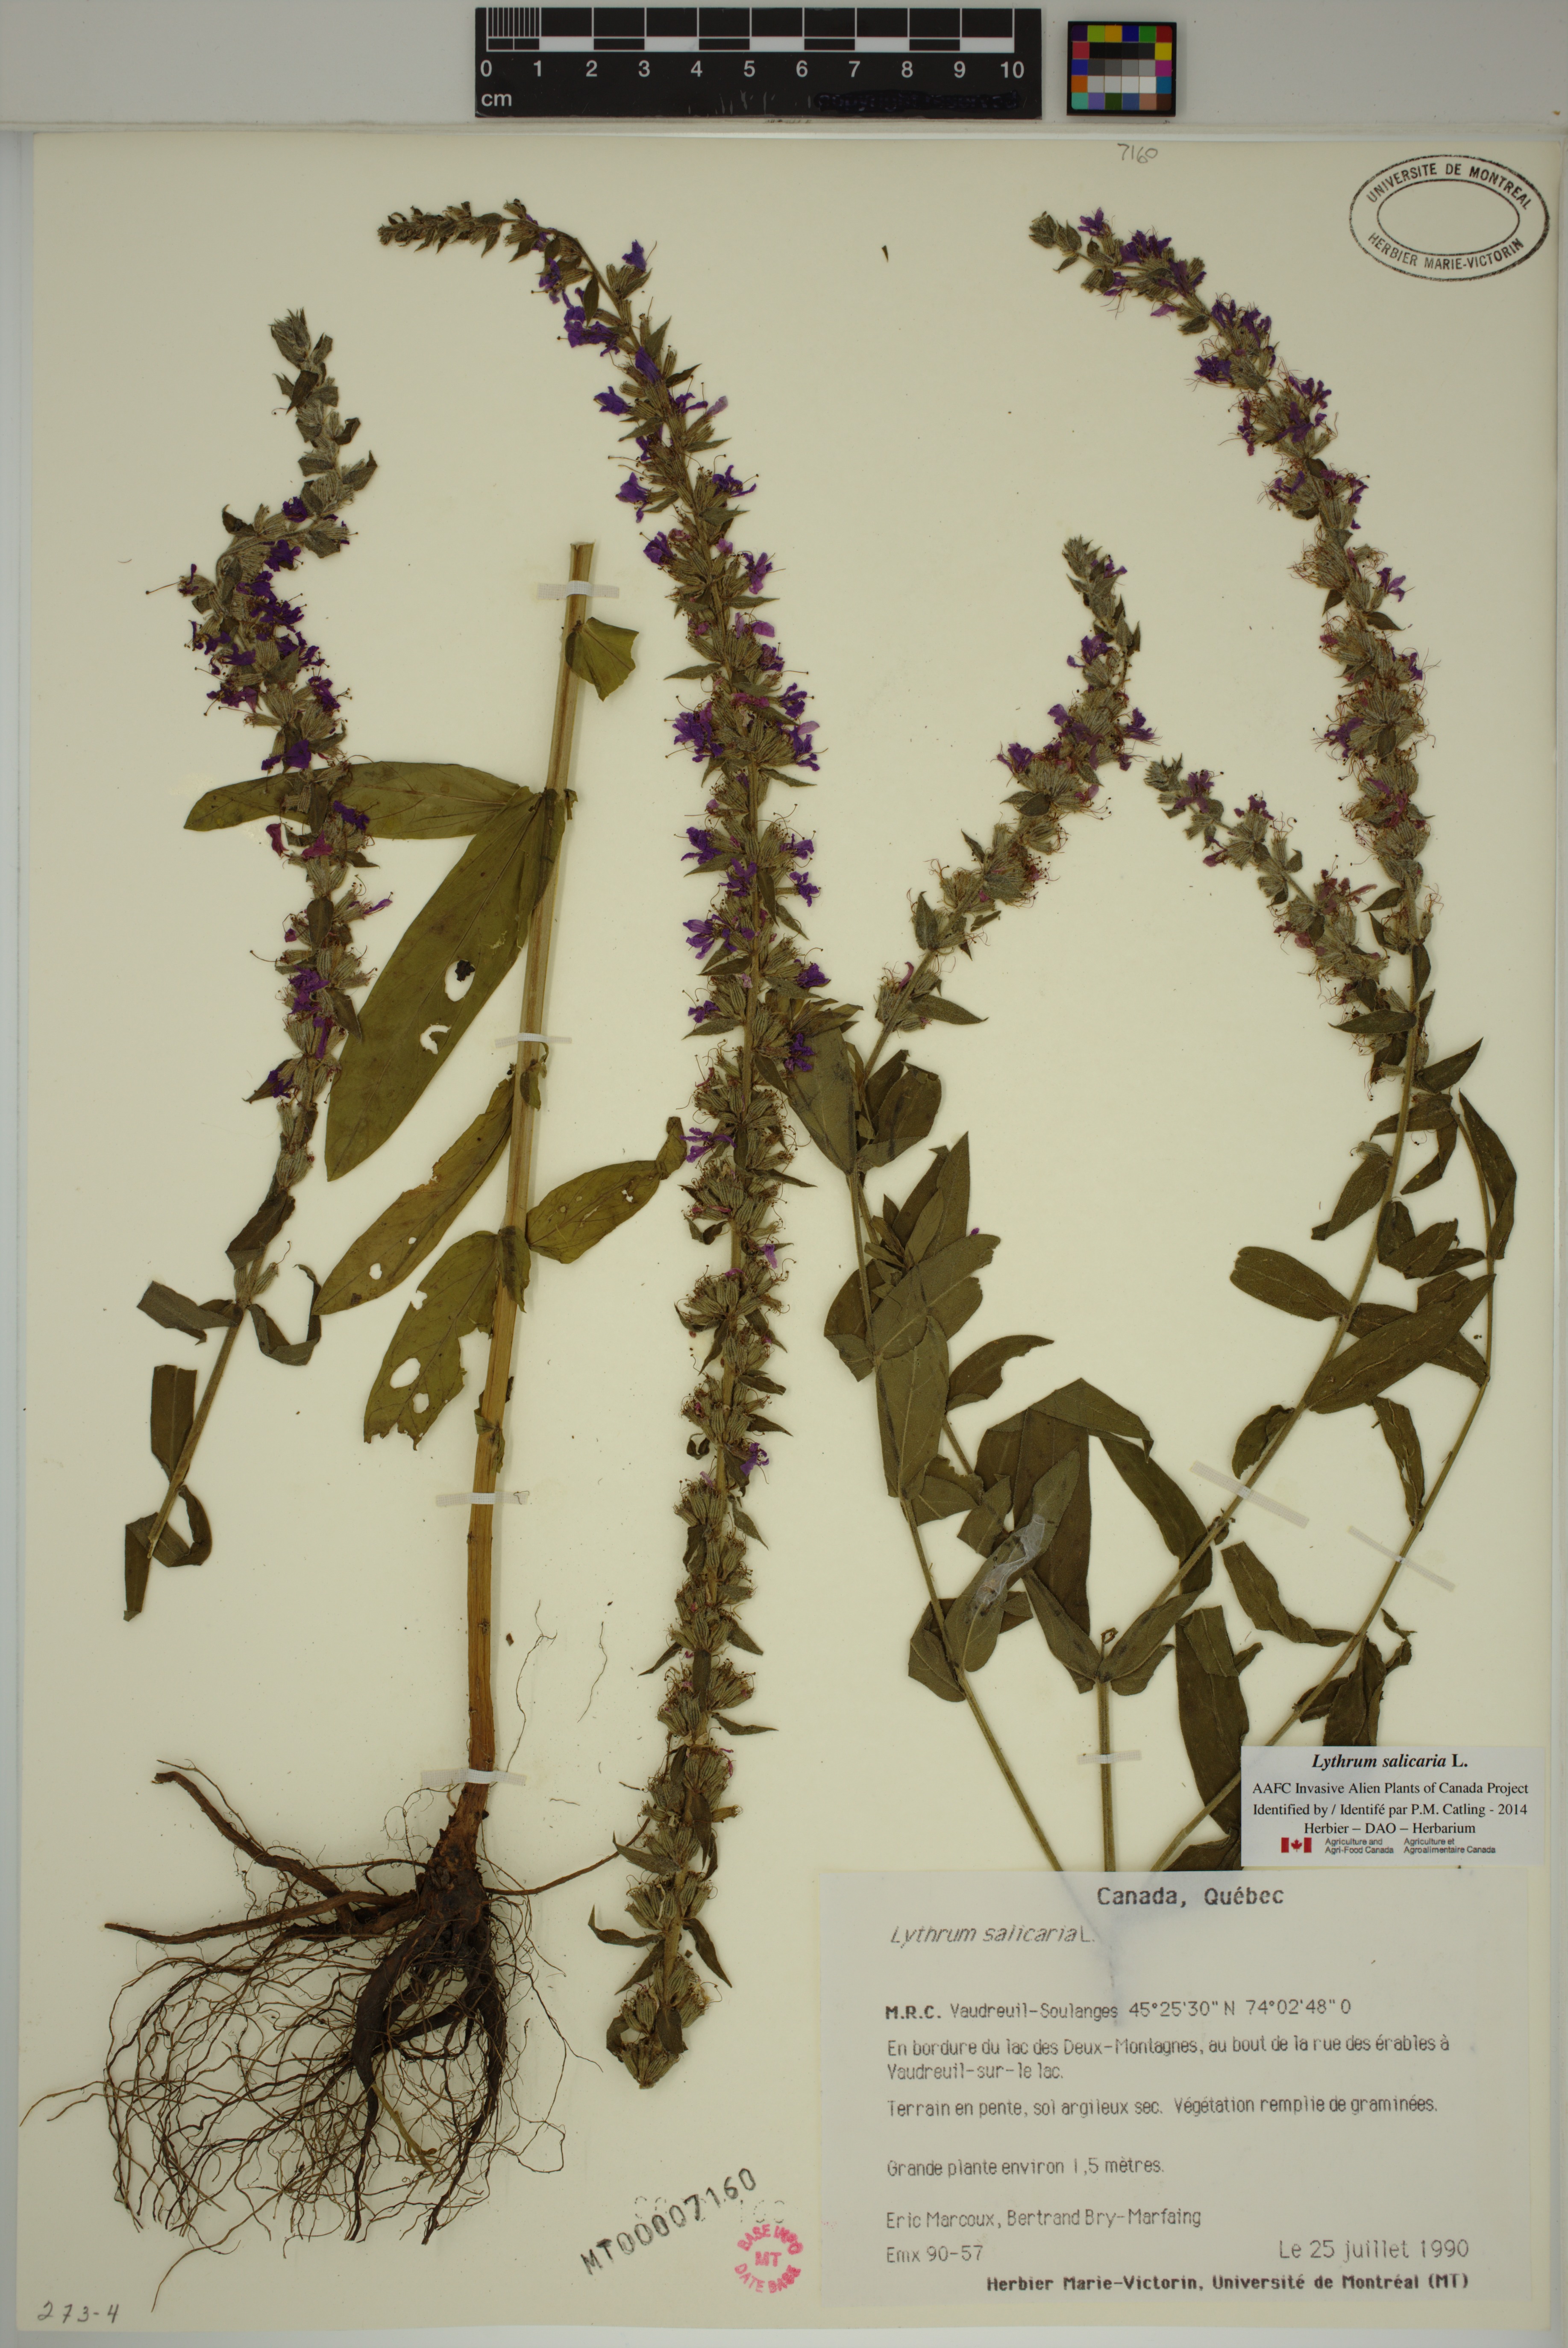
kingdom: Plantae
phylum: Tracheophyta
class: Magnoliopsida
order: Myrtales
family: Lythraceae
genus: Lythrum
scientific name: Lythrum salicaria
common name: Purple loosestrife
